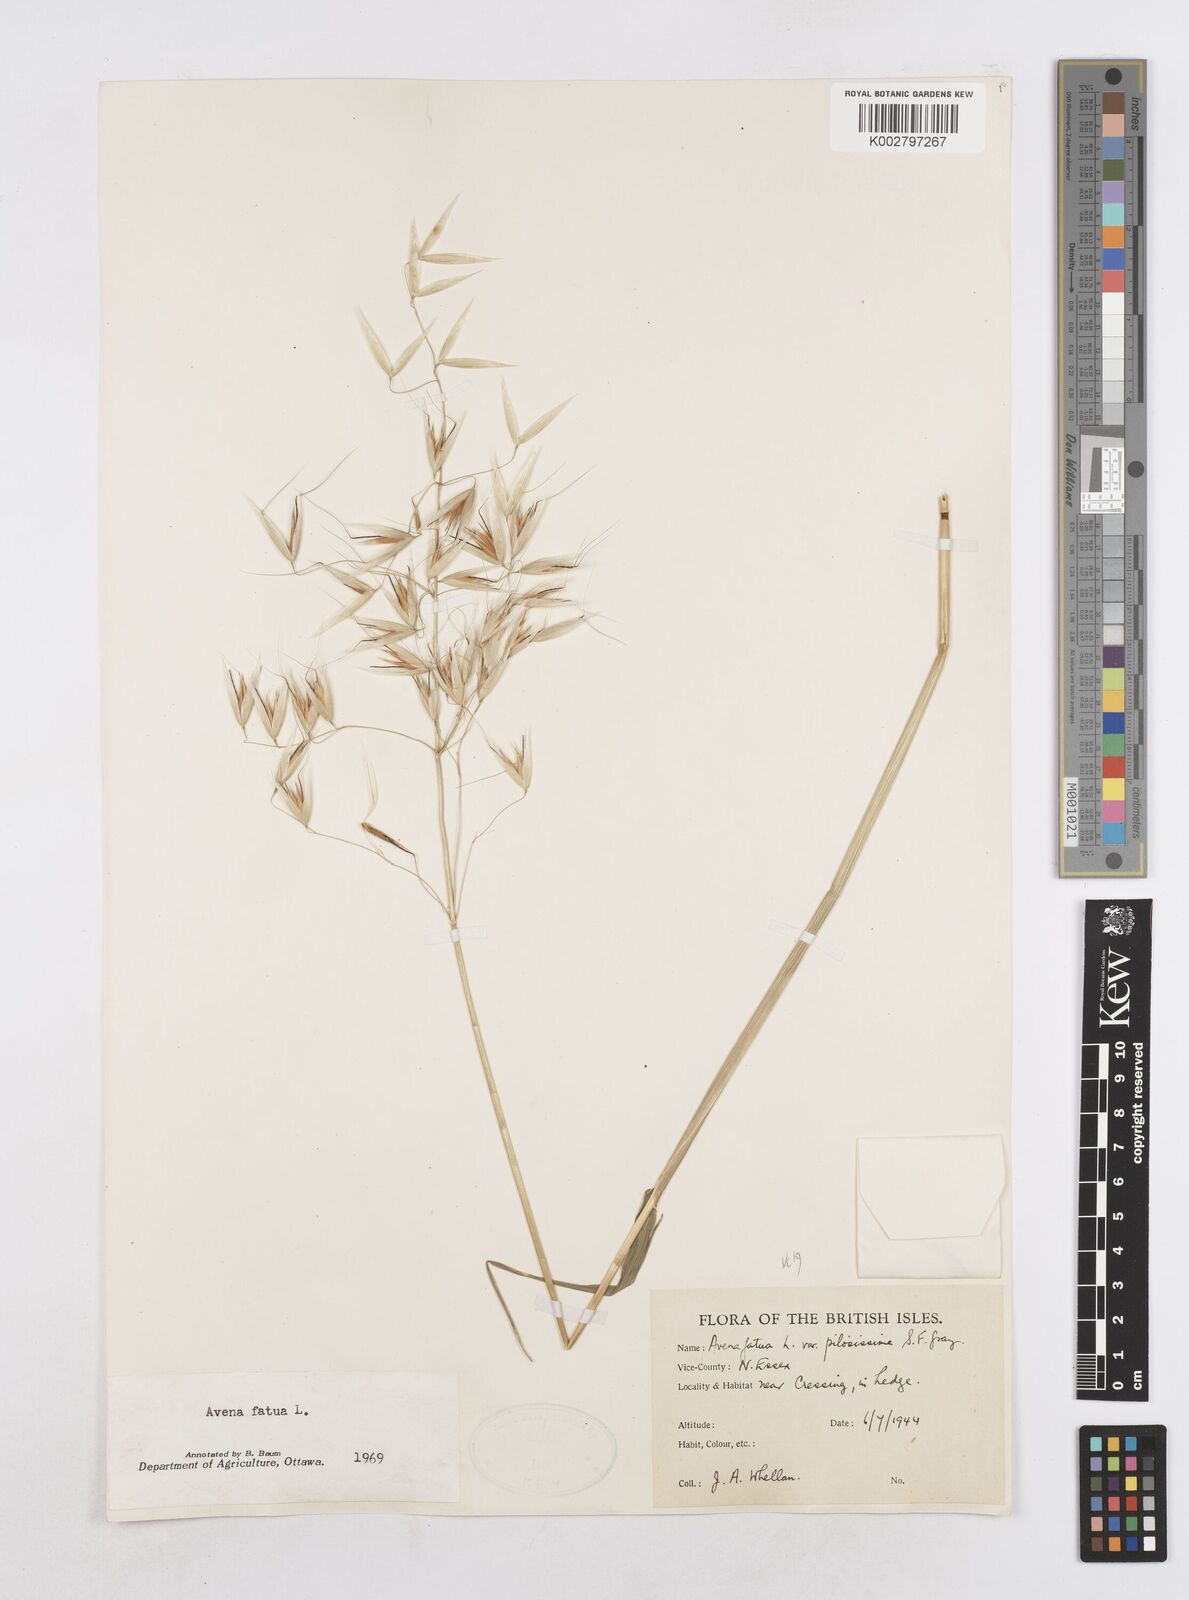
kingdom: Plantae
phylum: Tracheophyta
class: Liliopsida
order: Poales
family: Poaceae
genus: Avena
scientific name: Avena fatua
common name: Wild oat
